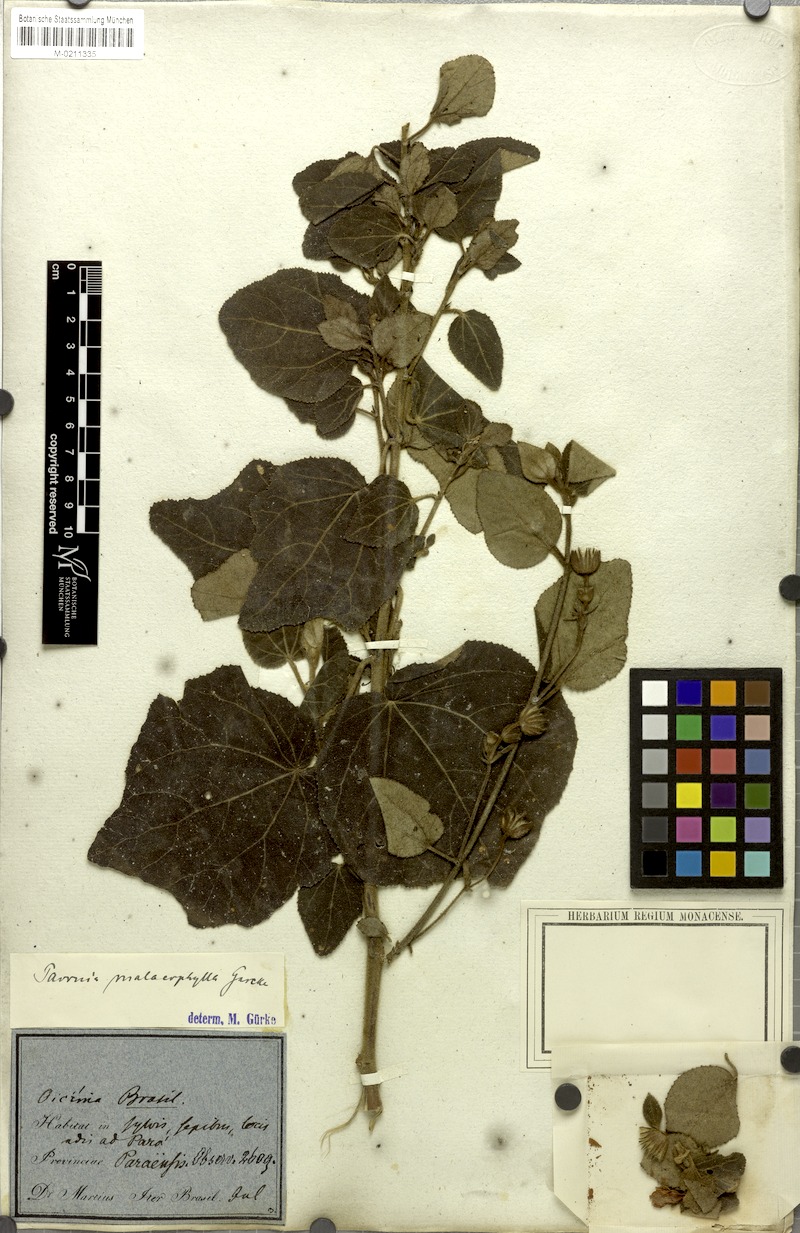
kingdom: Plantae
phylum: Tracheophyta
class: Magnoliopsida
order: Malvales
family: Malvaceae
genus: Pavonia
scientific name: Pavonia malacophylla
